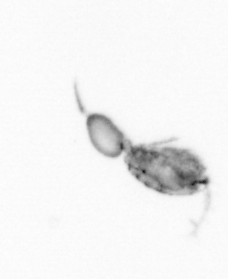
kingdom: Animalia
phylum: Arthropoda
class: Copepoda
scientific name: Copepoda
